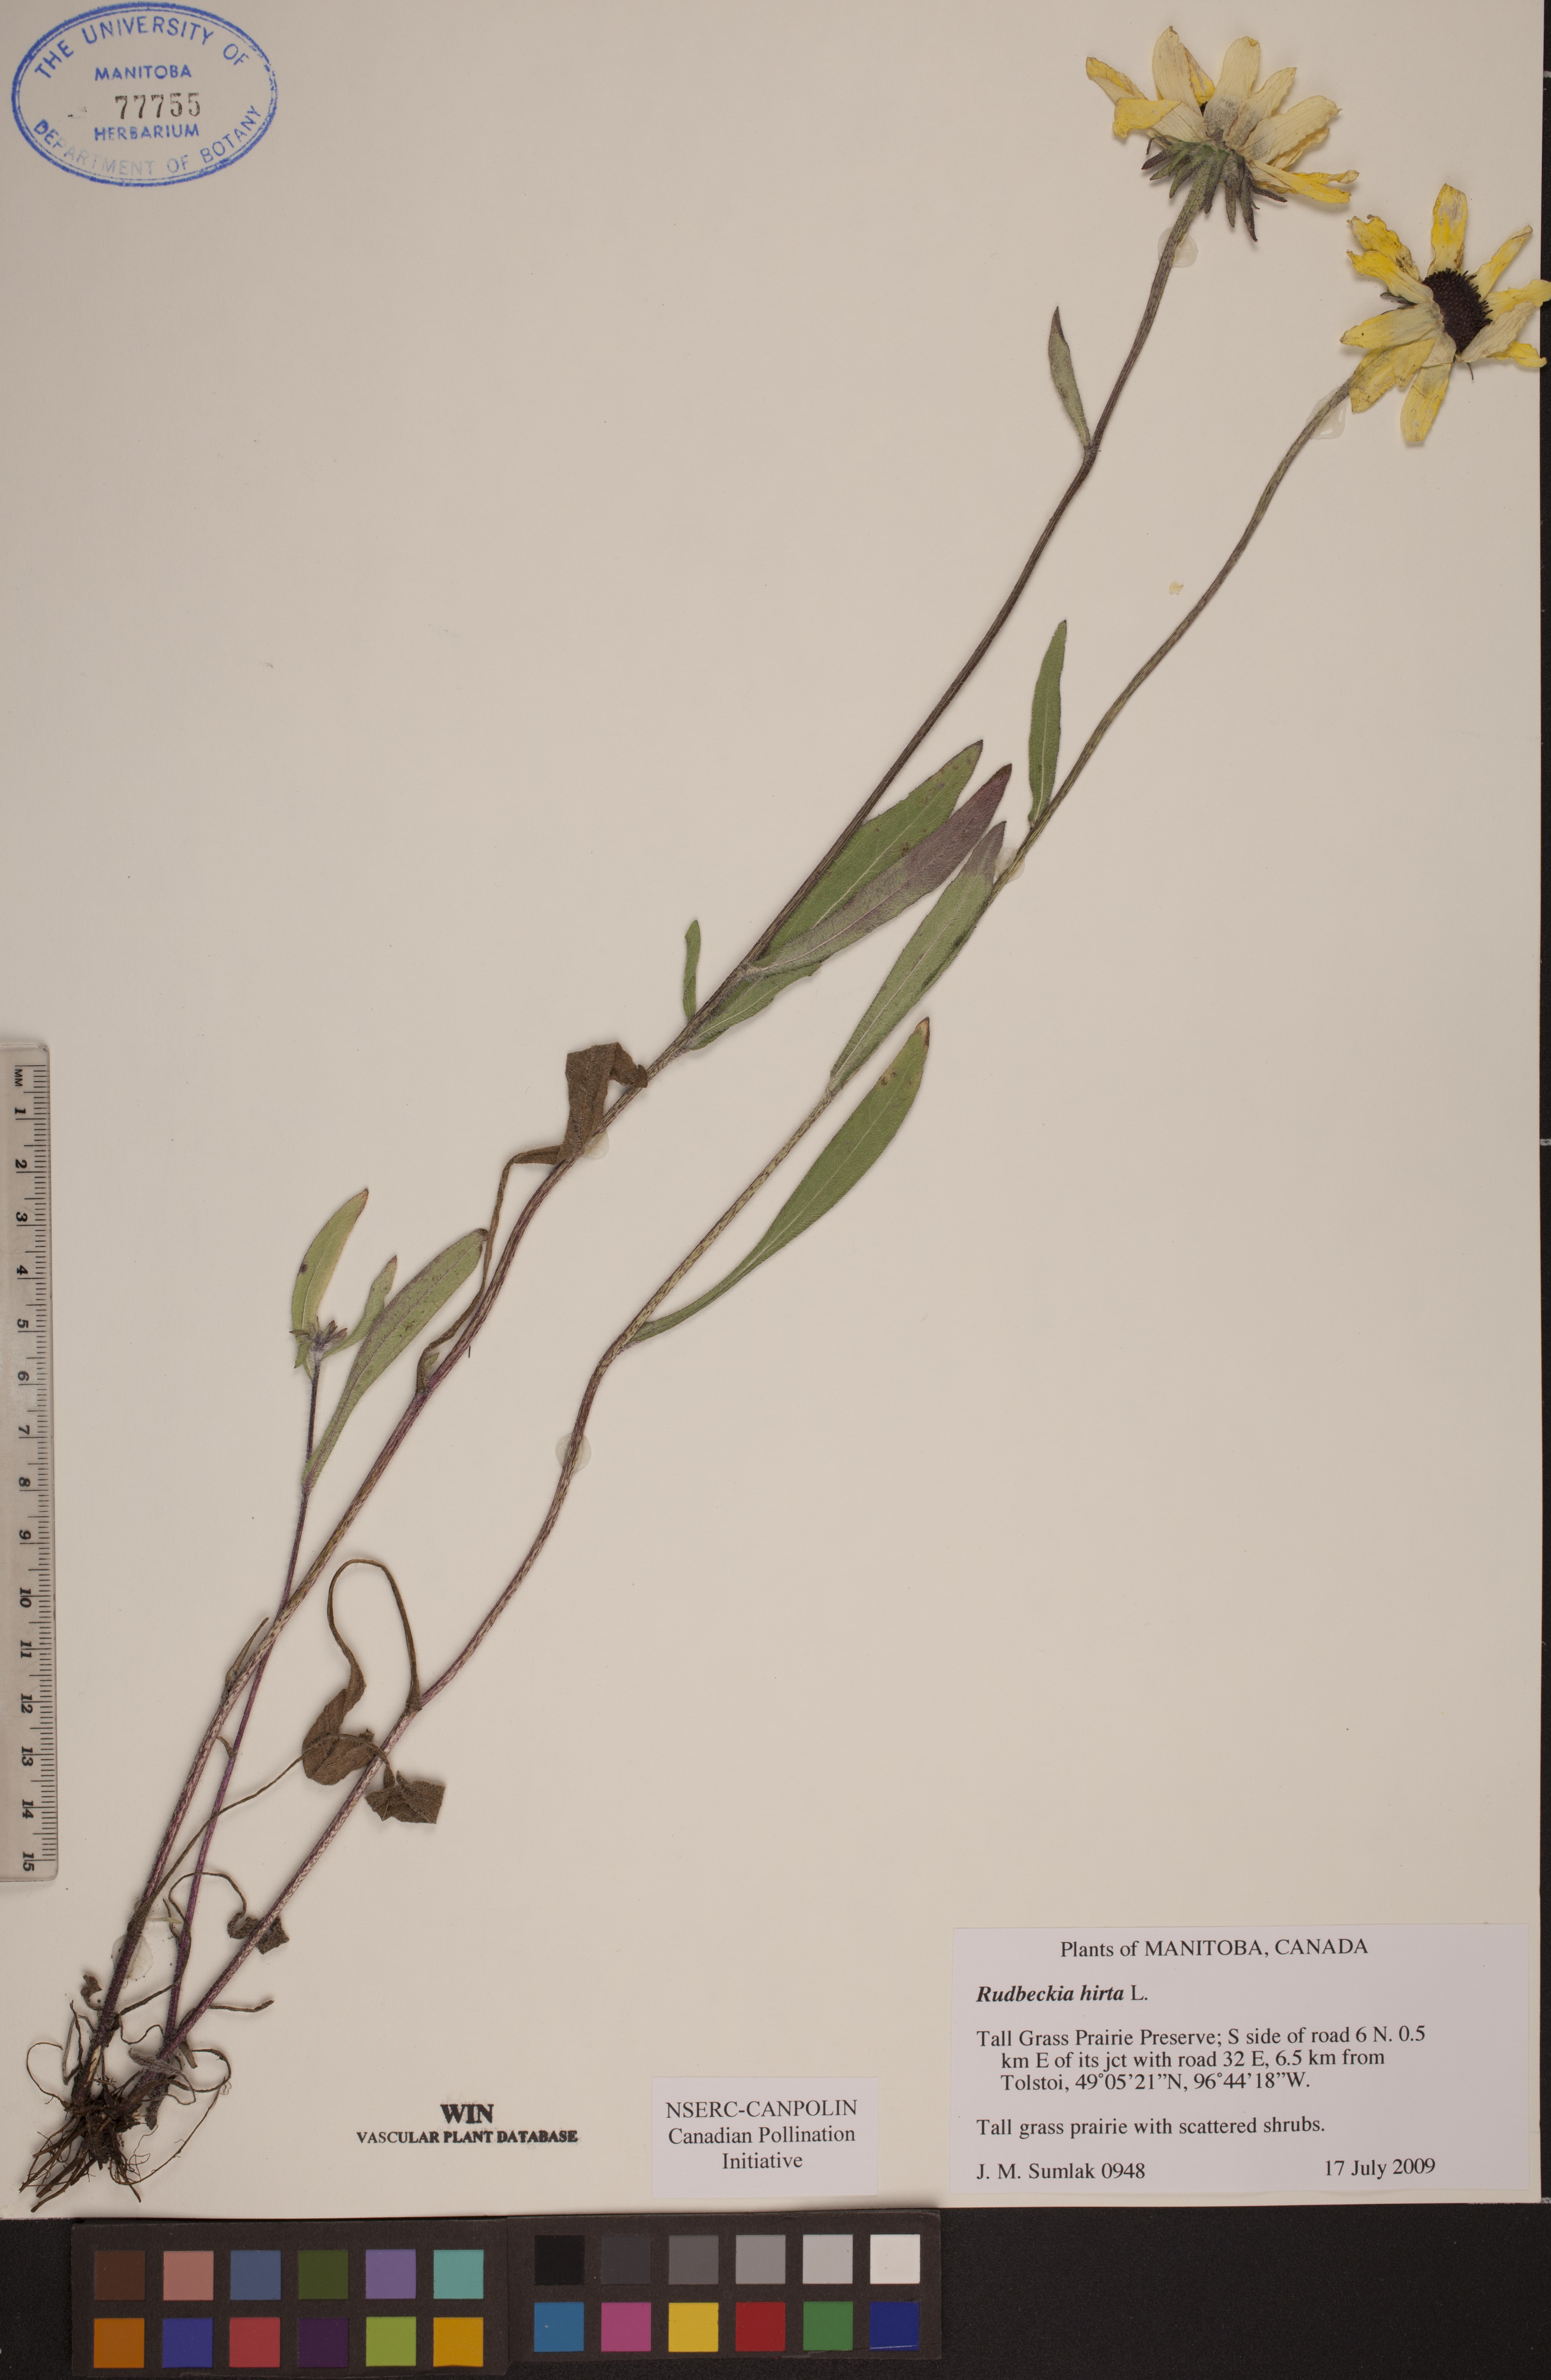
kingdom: Plantae
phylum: Tracheophyta
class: Magnoliopsida
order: Asterales
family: Asteraceae
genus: Rudbeckia
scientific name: Rudbeckia hirta
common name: Black-eyed-susan
